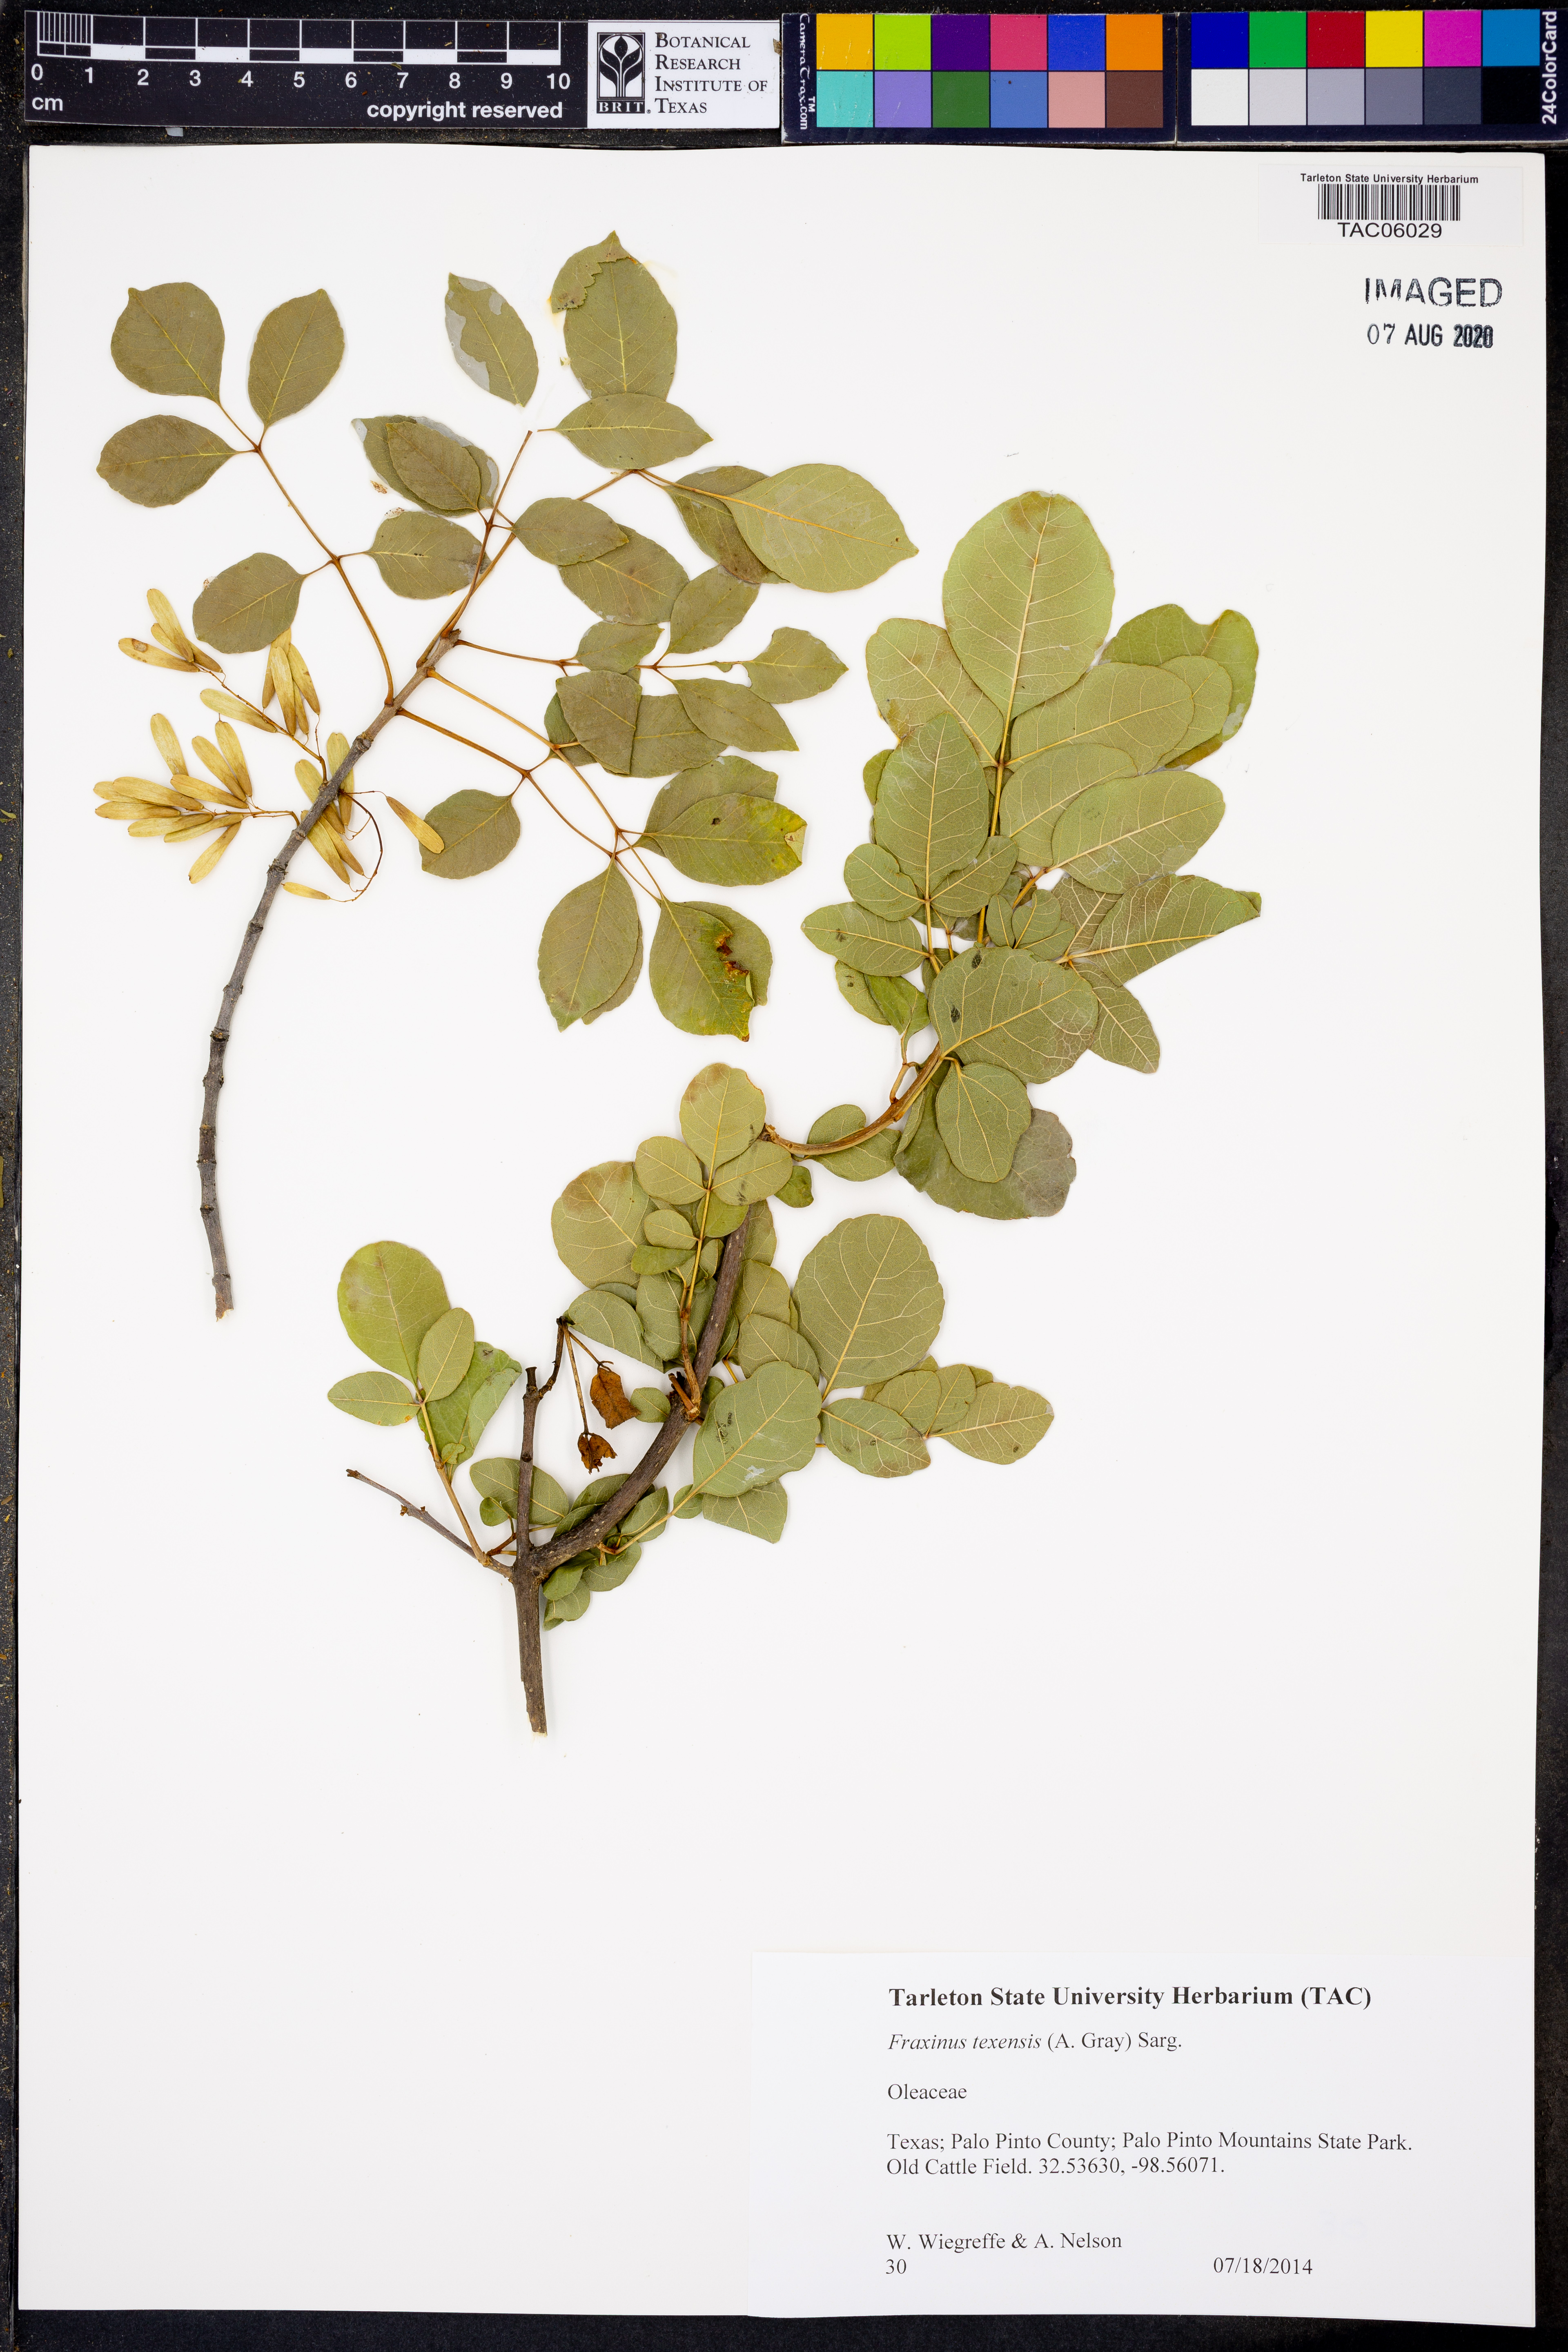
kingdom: Plantae
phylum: Tracheophyta
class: Magnoliopsida
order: Lamiales
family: Oleaceae
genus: Fraxinus
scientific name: Fraxinus albicans
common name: Texas ash
